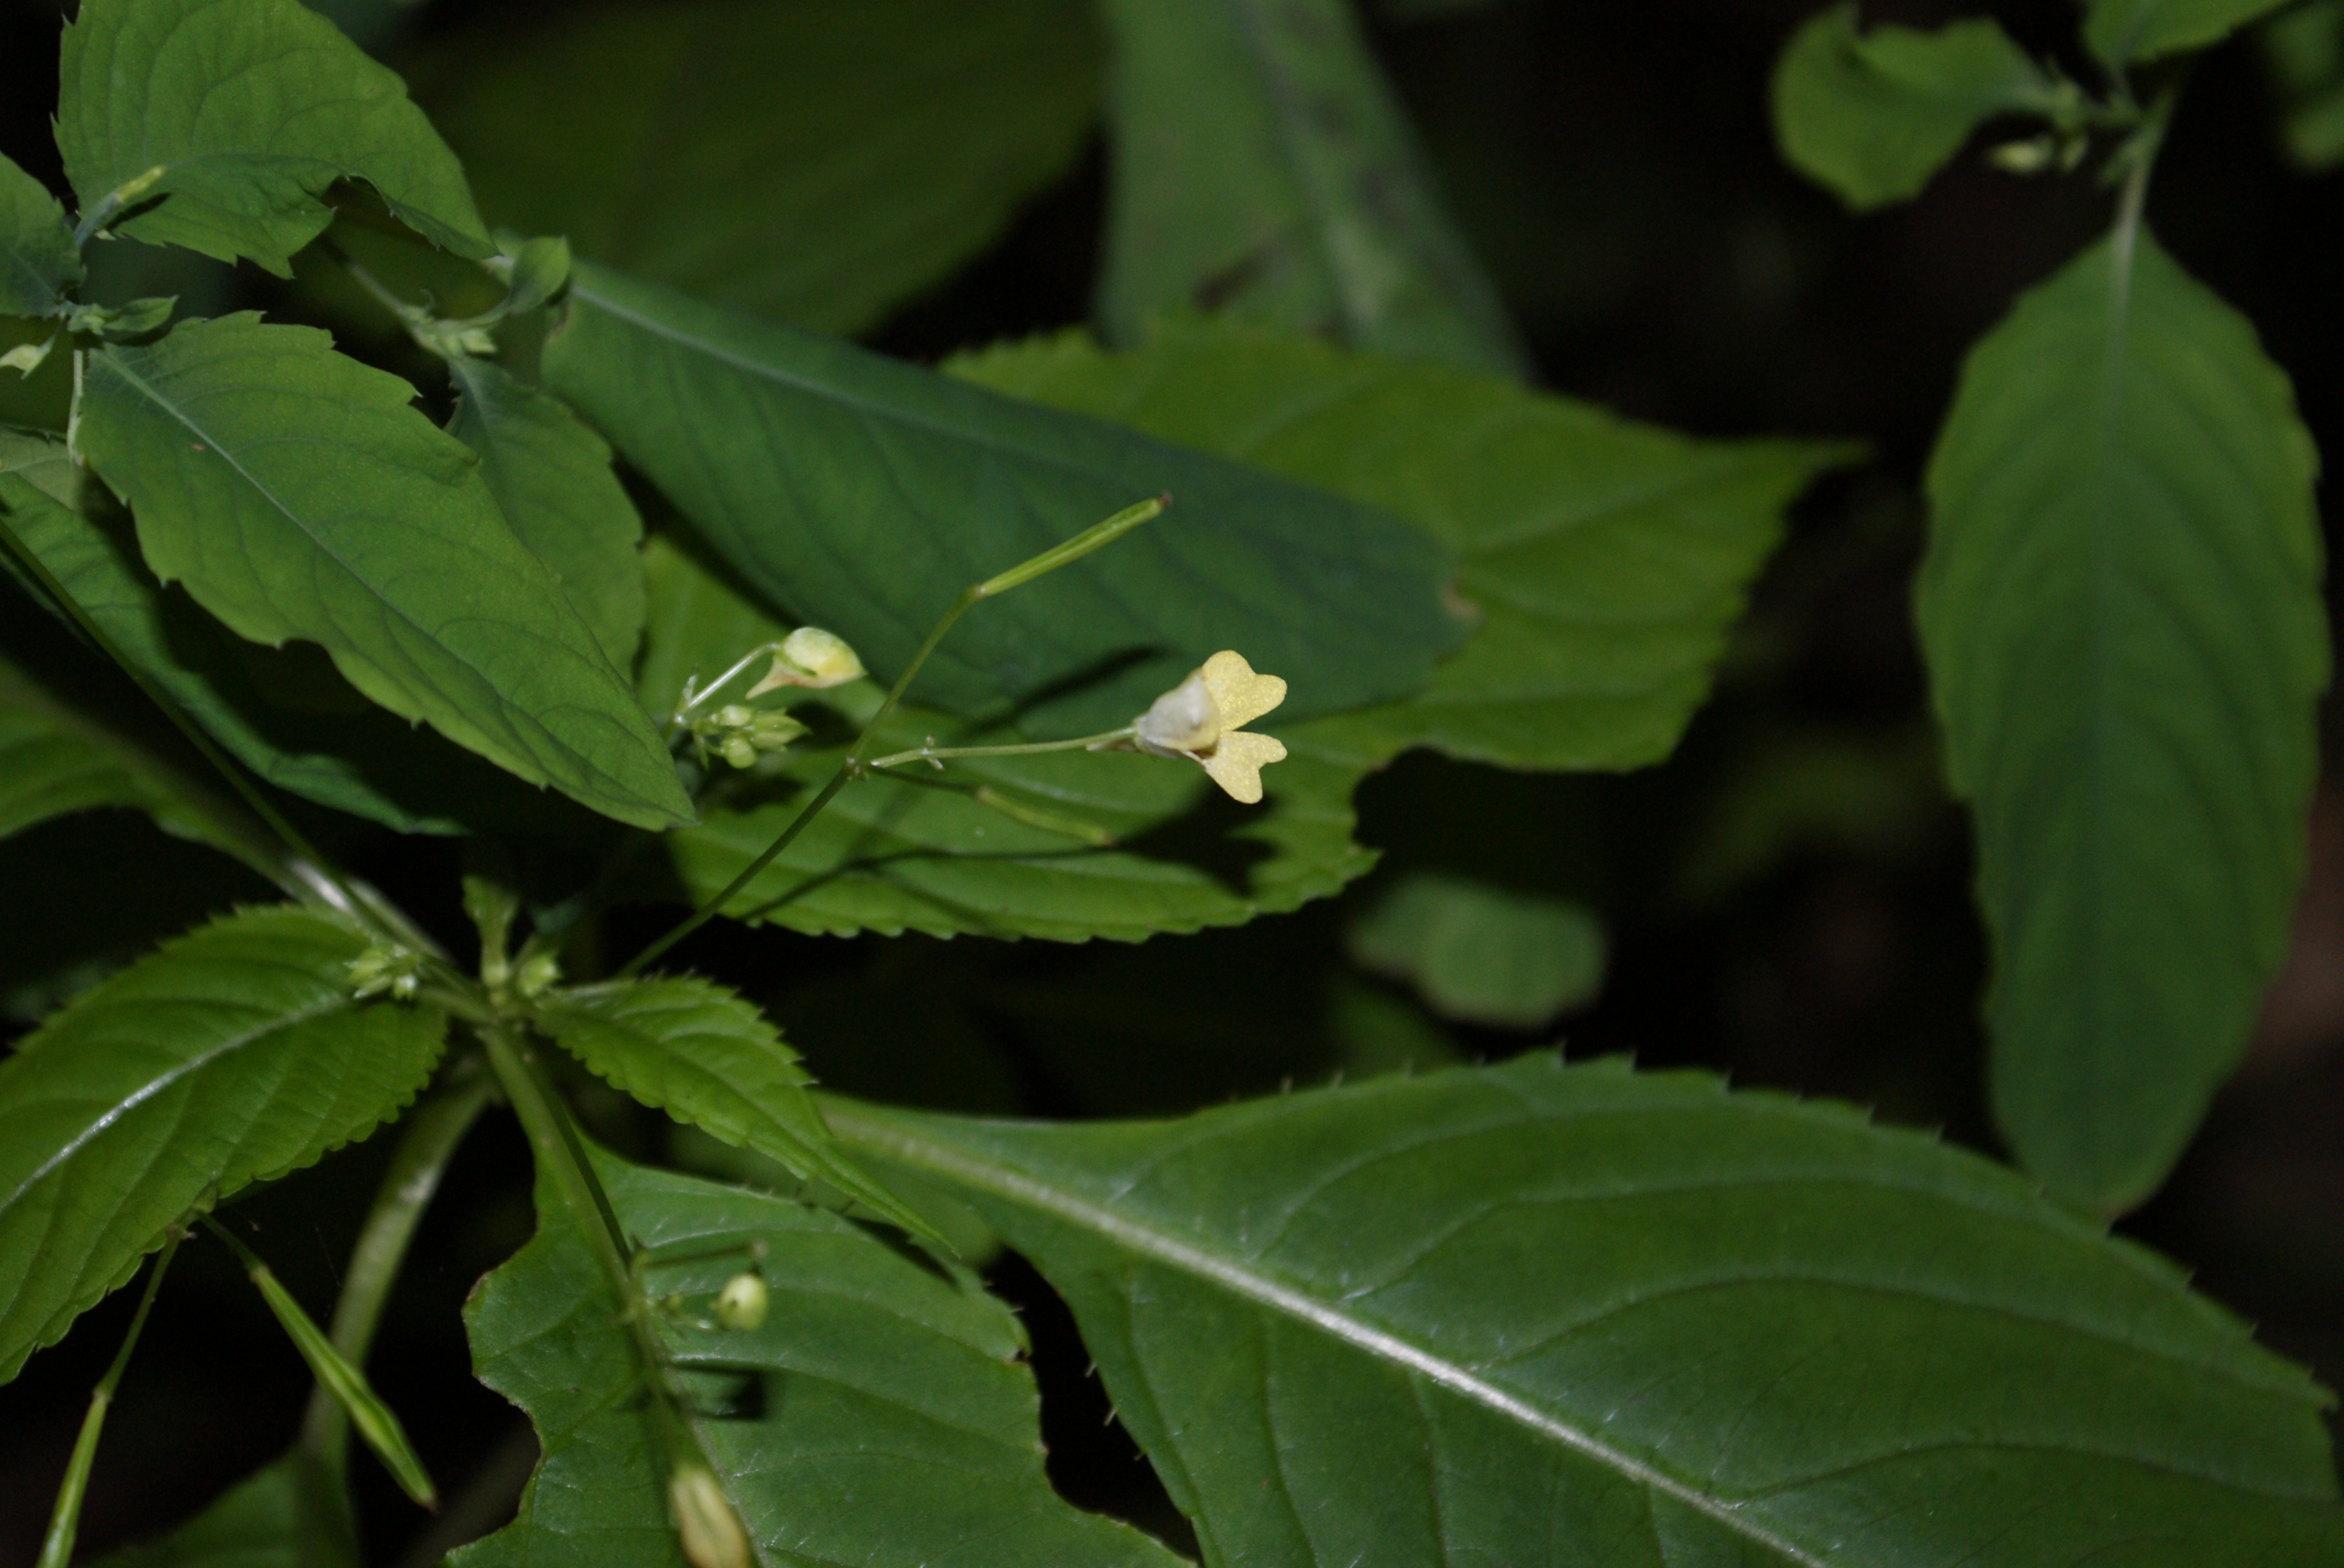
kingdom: Plantae
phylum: Tracheophyta
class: Magnoliopsida
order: Ericales
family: Balsaminaceae
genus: Impatiens
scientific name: Impatiens parviflora
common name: Småblomstret balsamin
